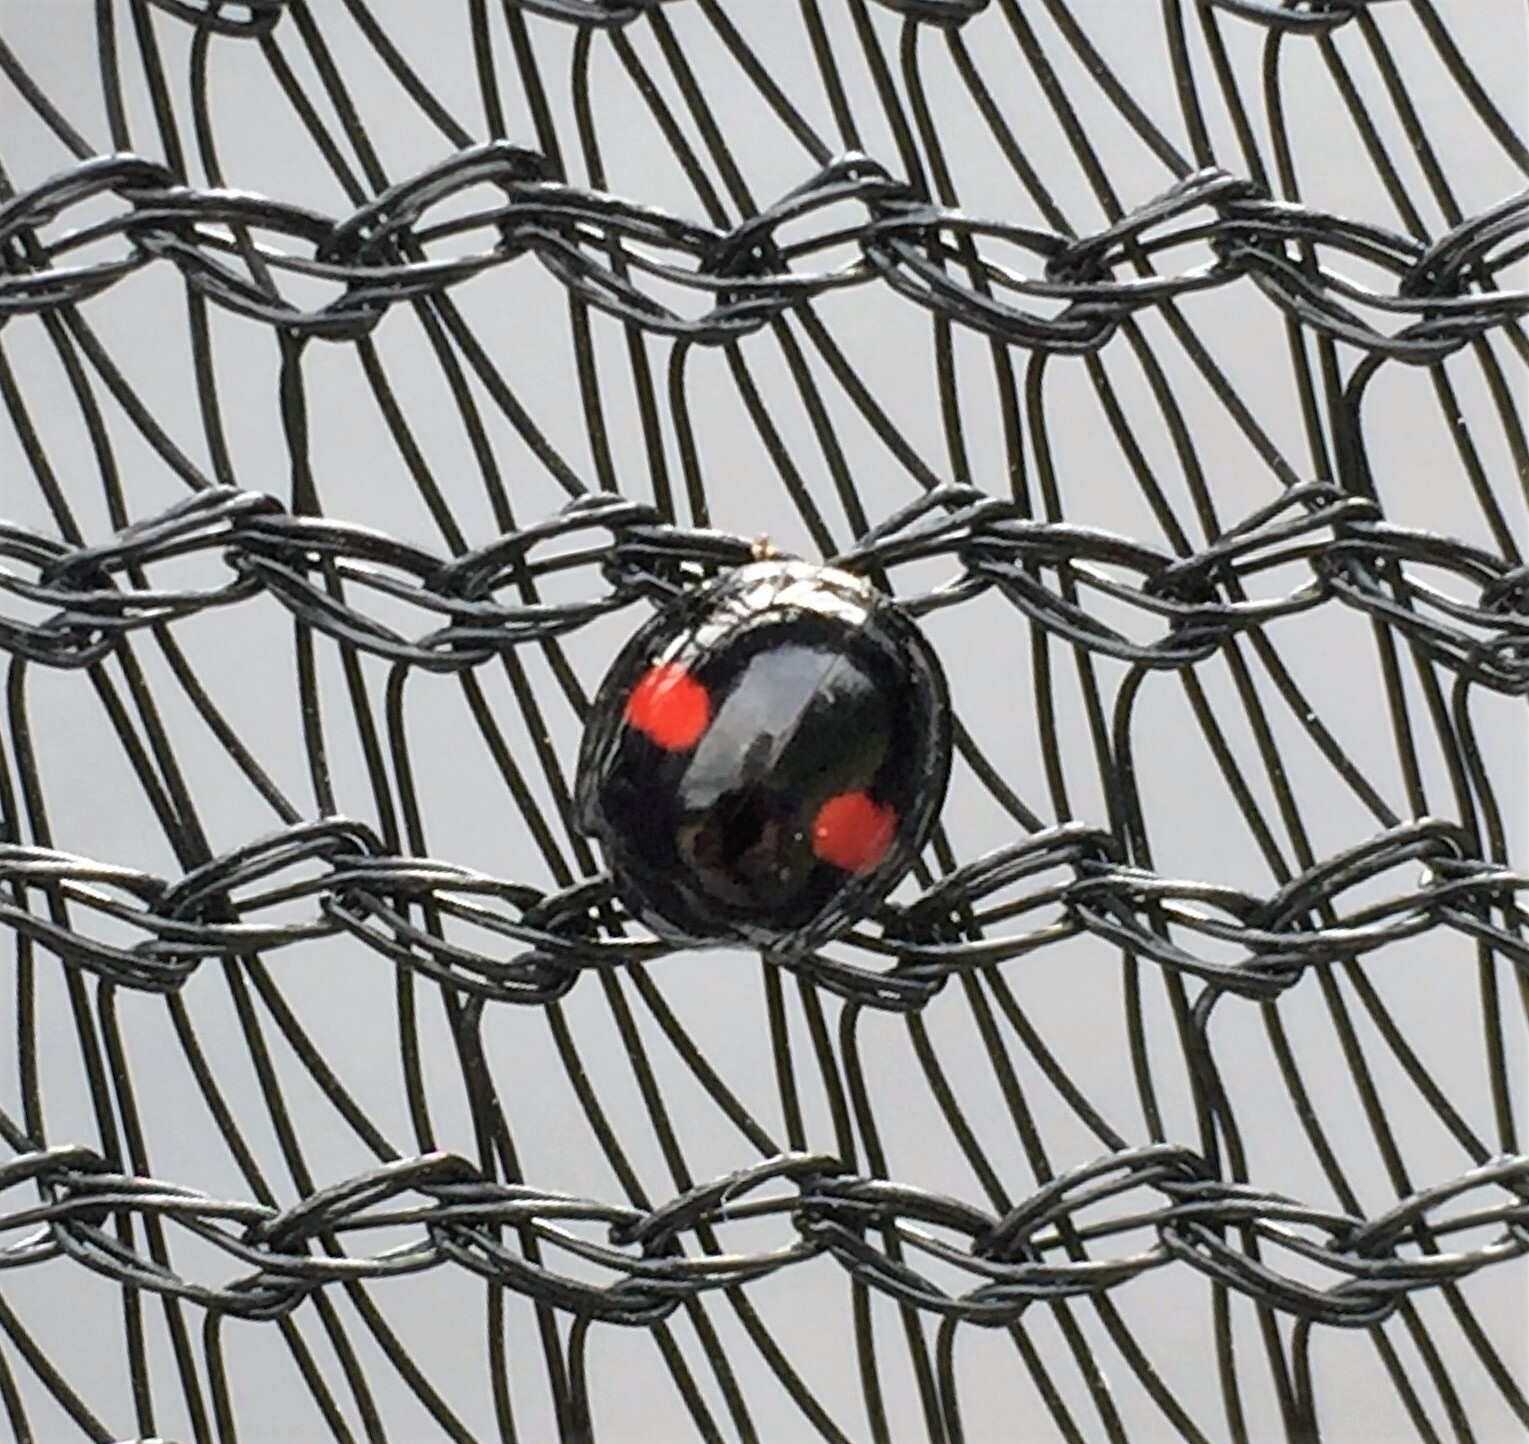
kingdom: Animalia
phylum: Arthropoda
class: Insecta
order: Coleoptera
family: Coccinellidae
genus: Chilocorus
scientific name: Chilocorus renipustulatus
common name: Kidney-spot ladybird
